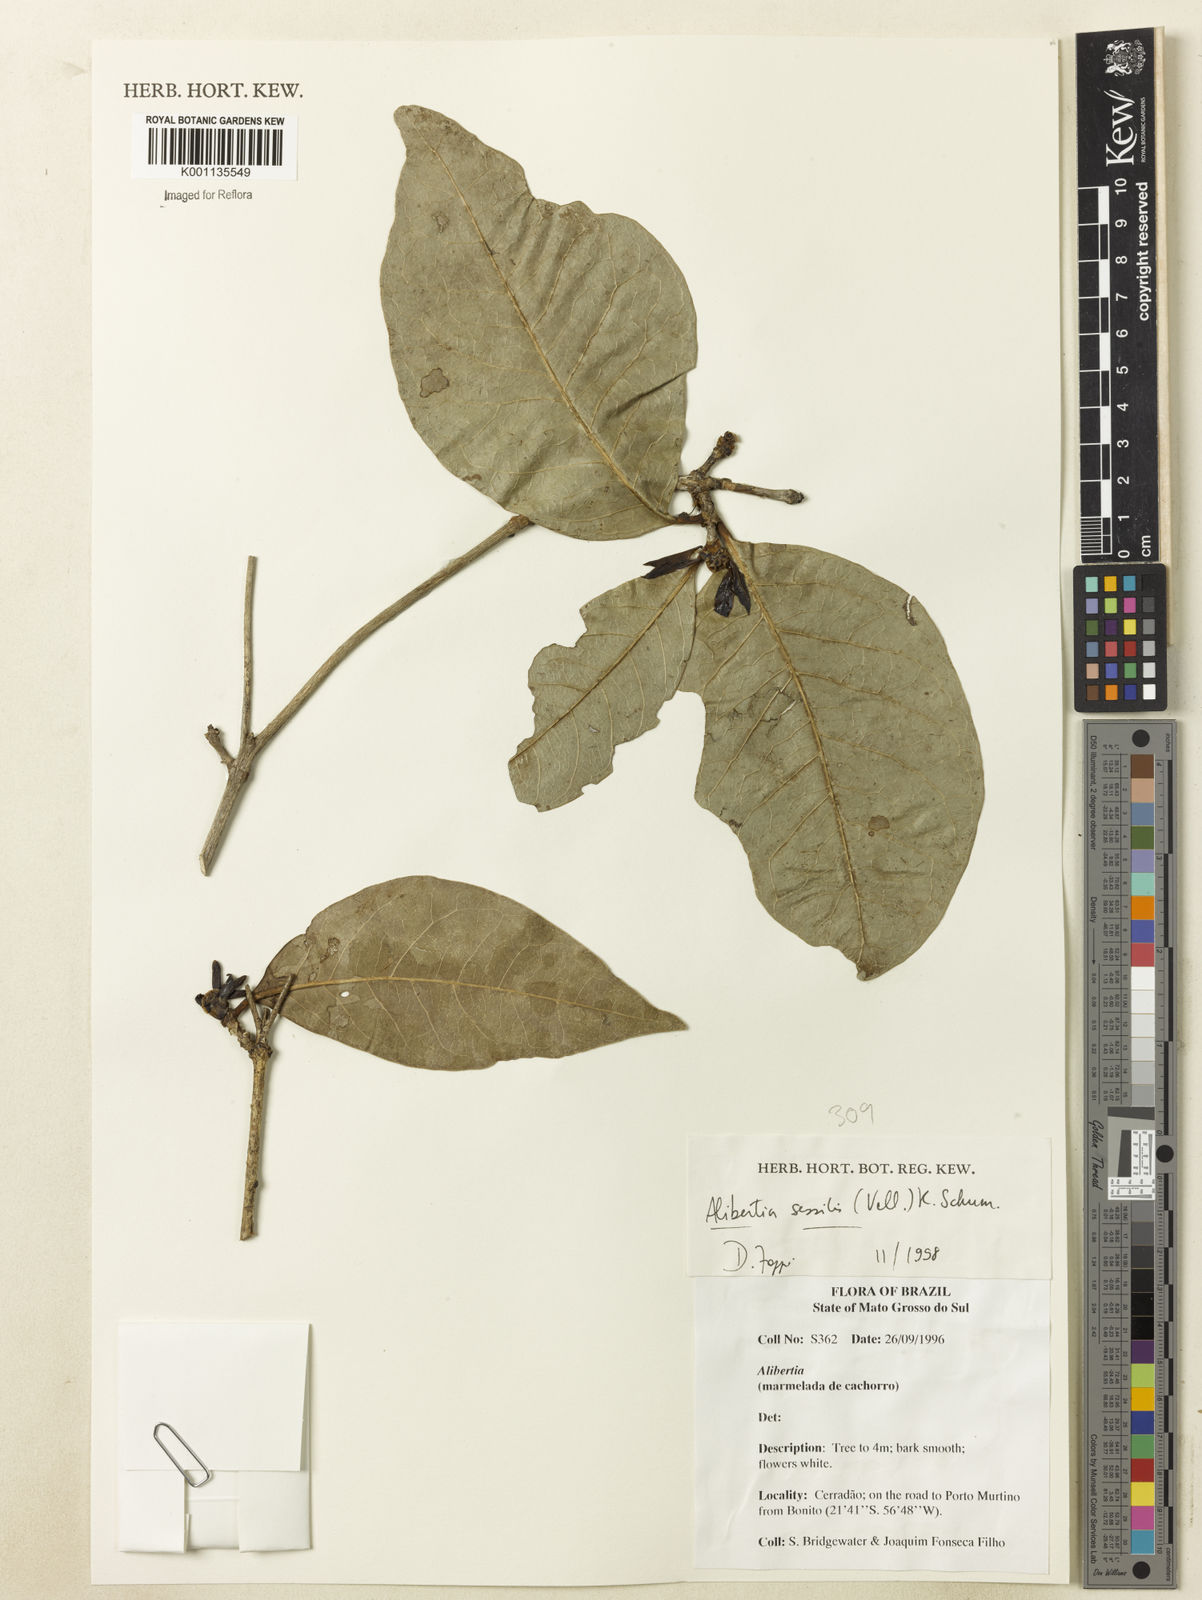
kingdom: Plantae
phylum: Tracheophyta
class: Magnoliopsida
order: Gentianales
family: Rubiaceae
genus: Cordiera
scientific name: Cordiera sessilis
